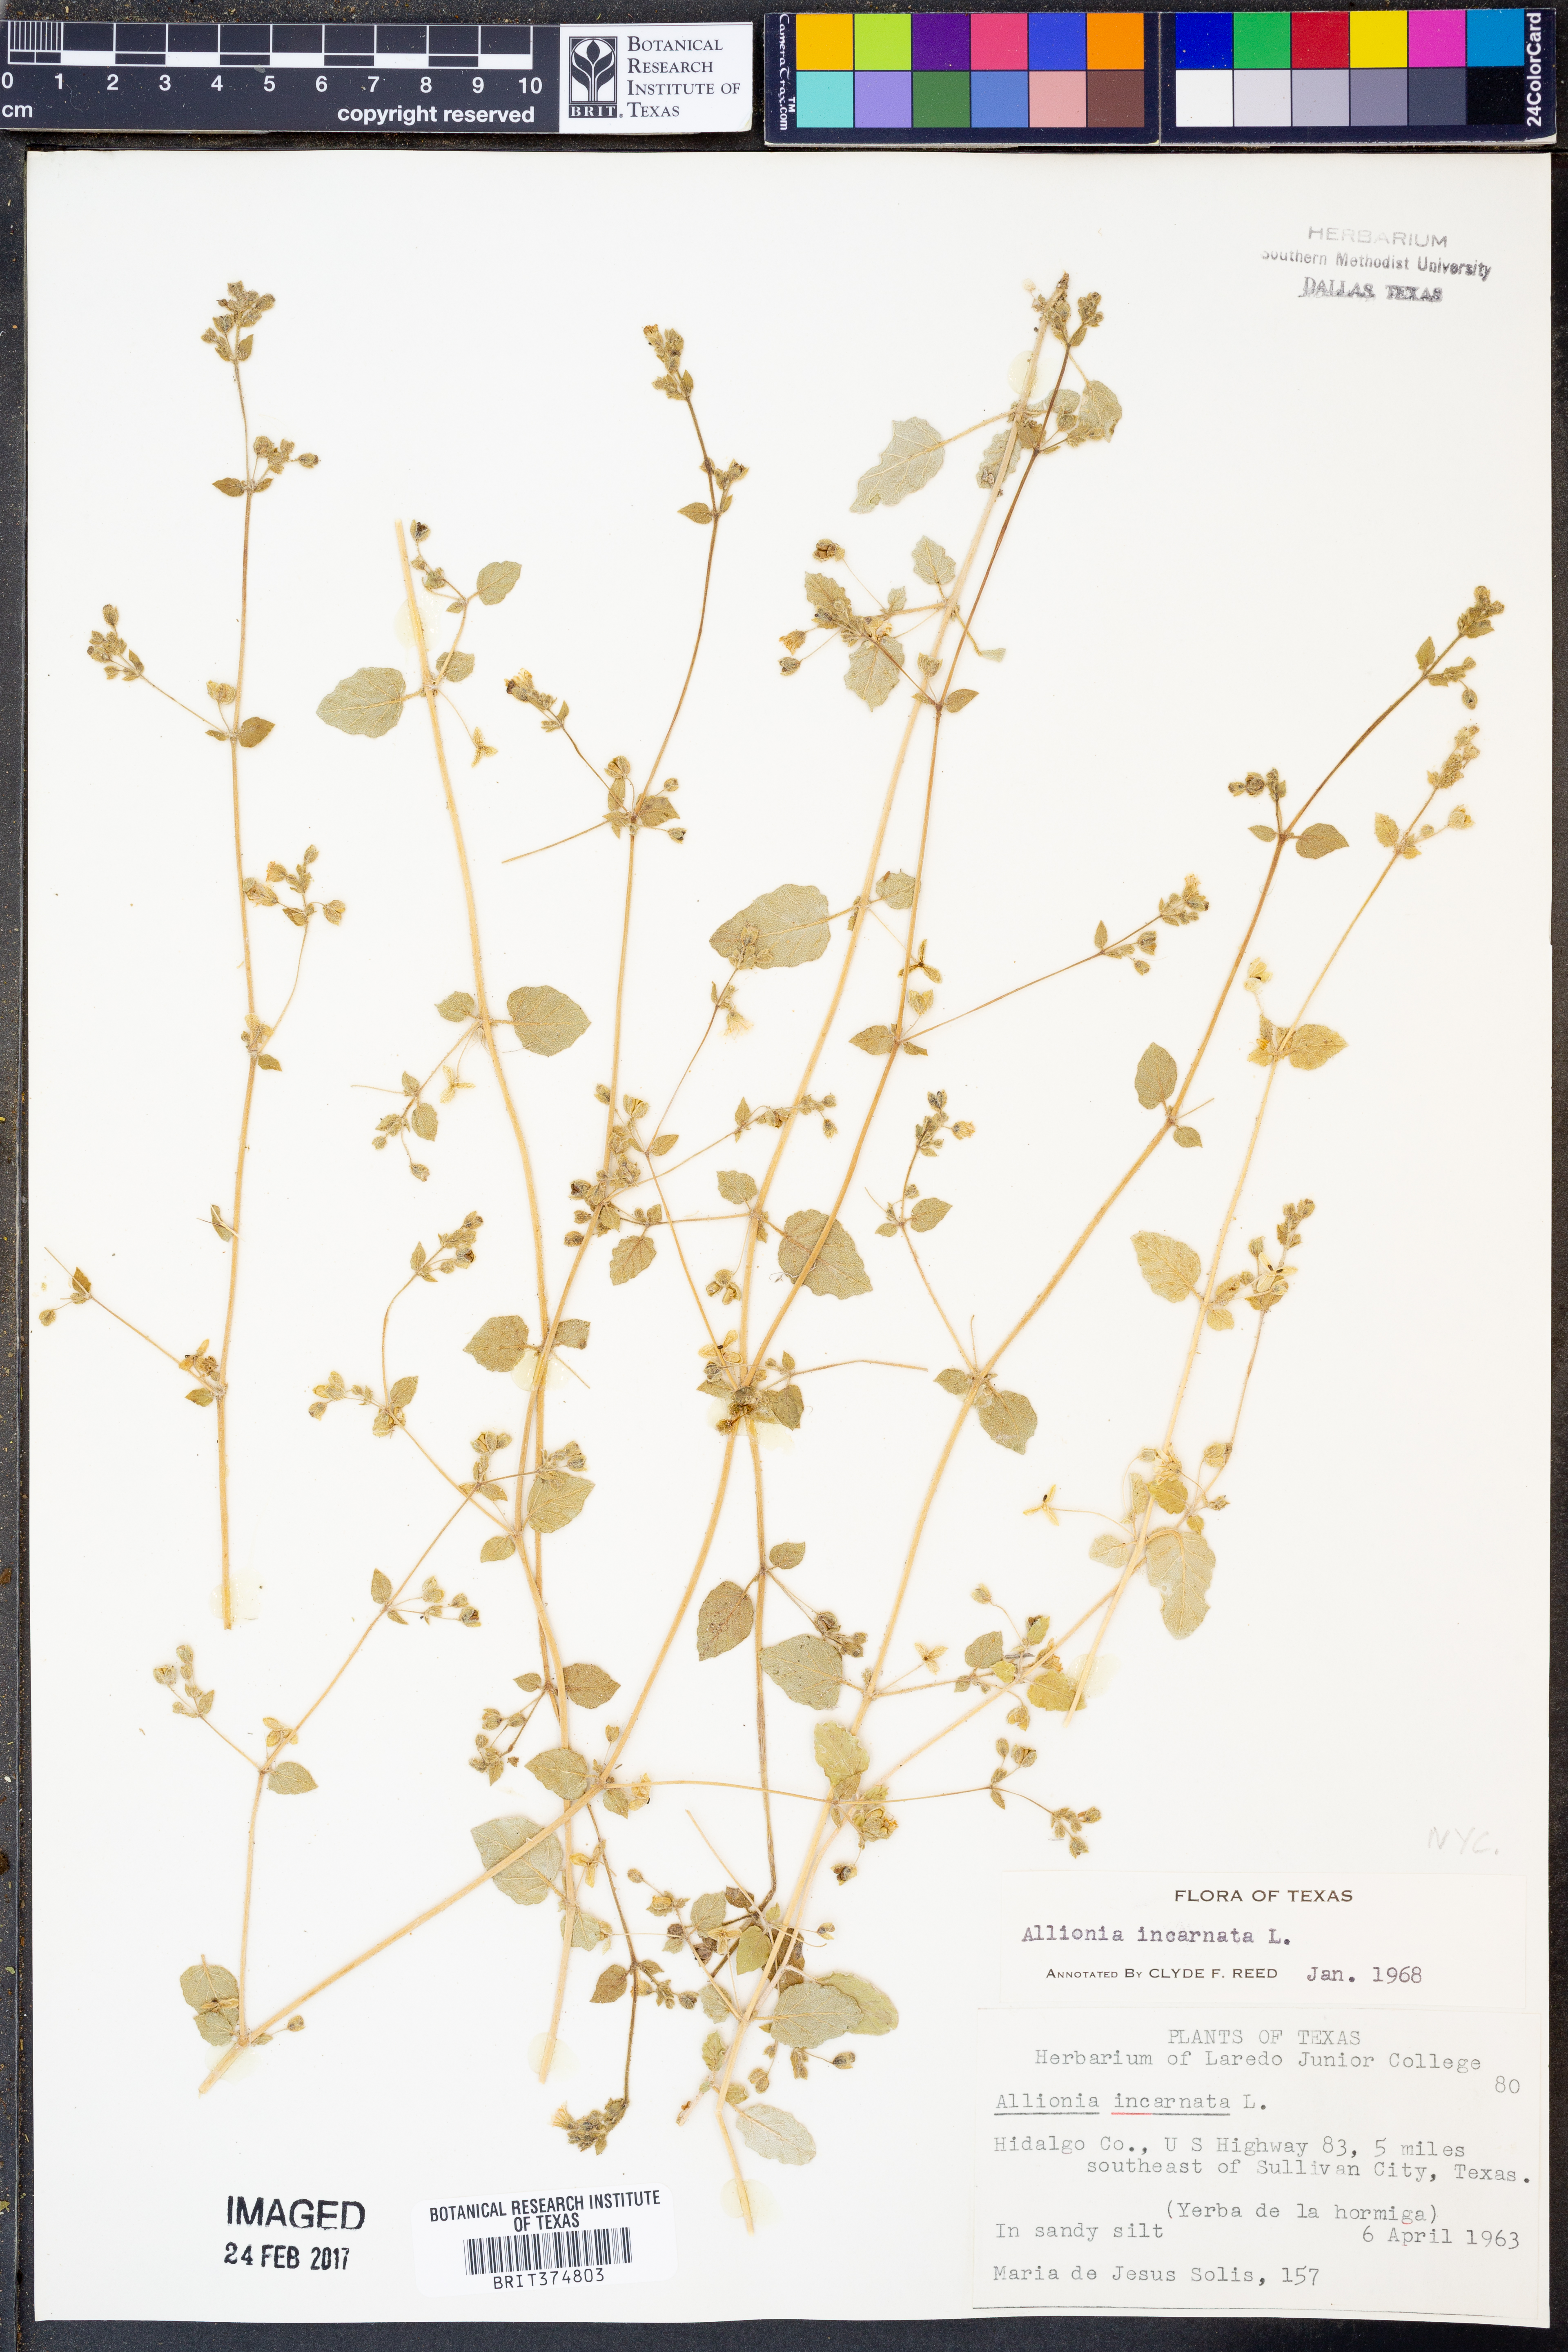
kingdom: Plantae
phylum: Tracheophyta
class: Magnoliopsida
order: Caryophyllales
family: Nyctaginaceae
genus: Allionia
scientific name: Allionia incarnata
